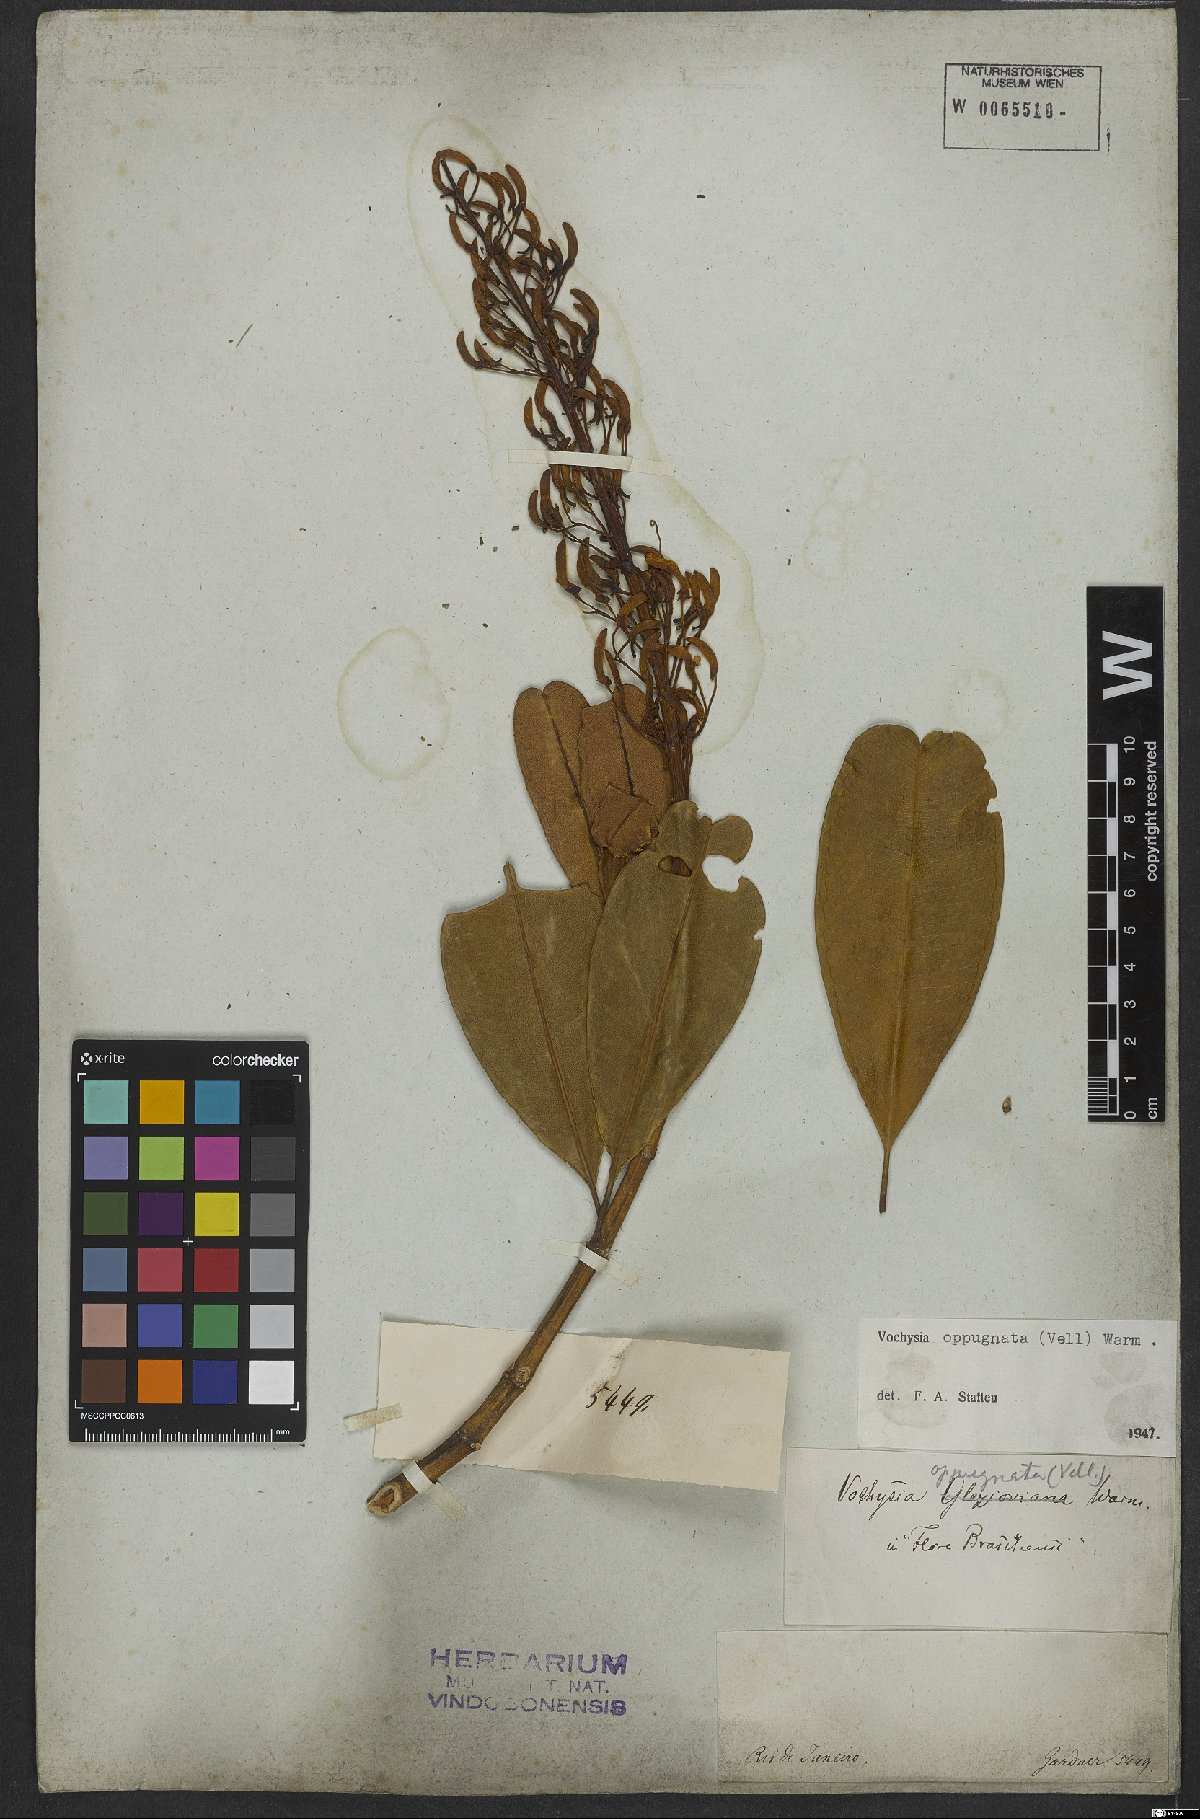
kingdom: Plantae
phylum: Tracheophyta
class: Magnoliopsida
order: Myrtales
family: Vochysiaceae
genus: Vochysia
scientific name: Vochysia oppugnata
